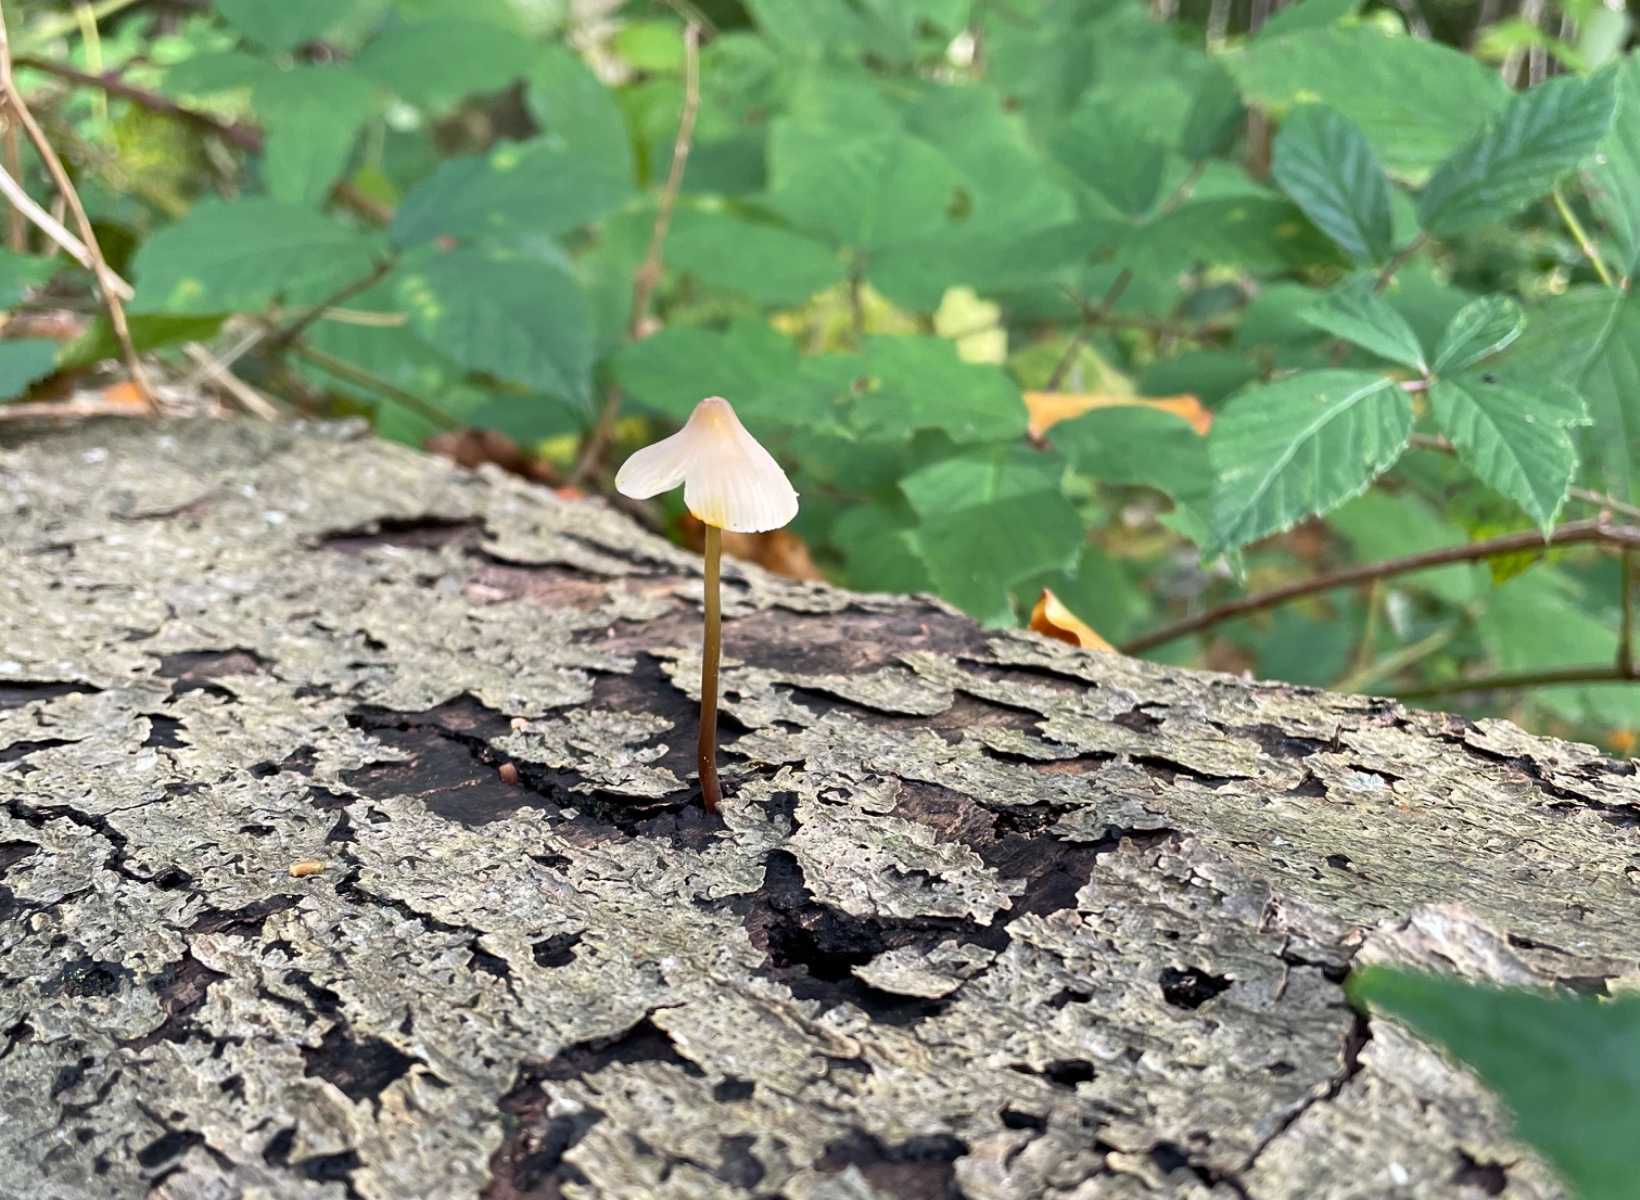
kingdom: Fungi
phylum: Basidiomycota
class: Agaricomycetes
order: Agaricales
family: Mycenaceae
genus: Mycena
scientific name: Mycena crocata
